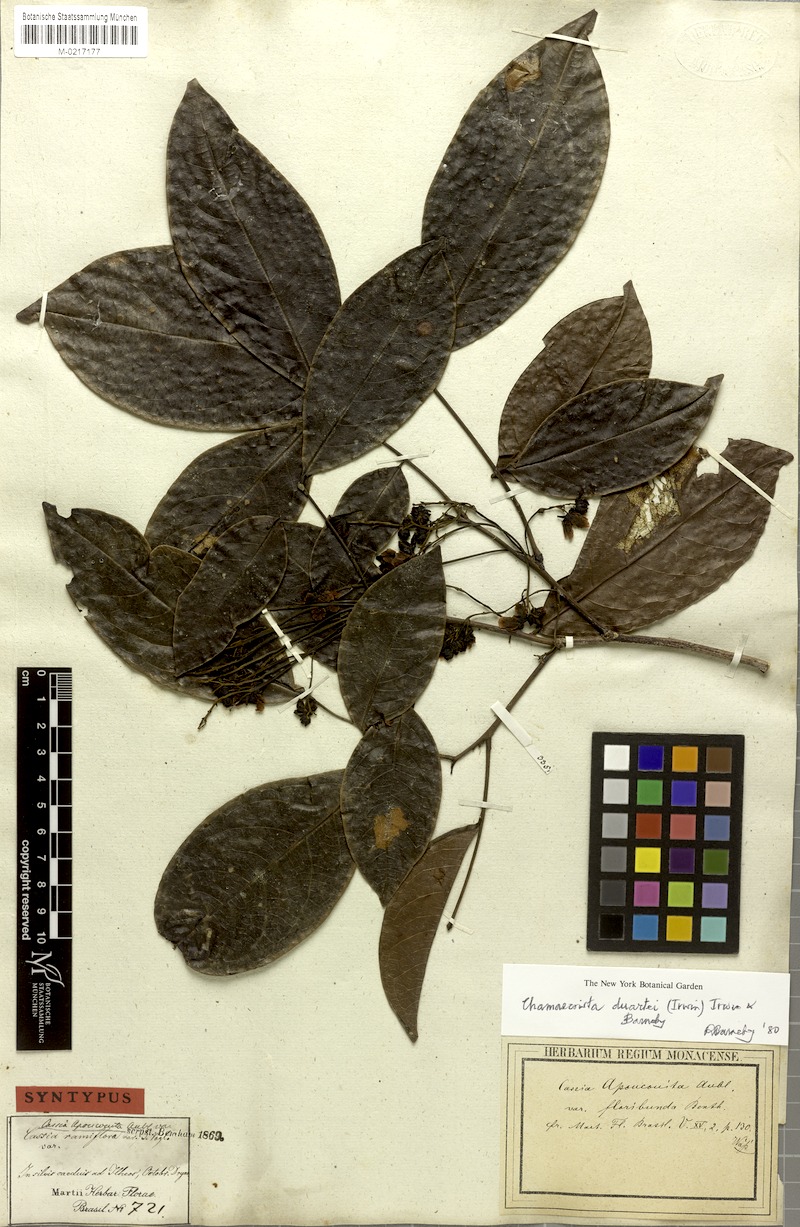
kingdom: Plantae
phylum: Tracheophyta
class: Magnoliopsida
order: Fabales
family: Fabaceae
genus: Chamaecrista
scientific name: Chamaecrista duartei
